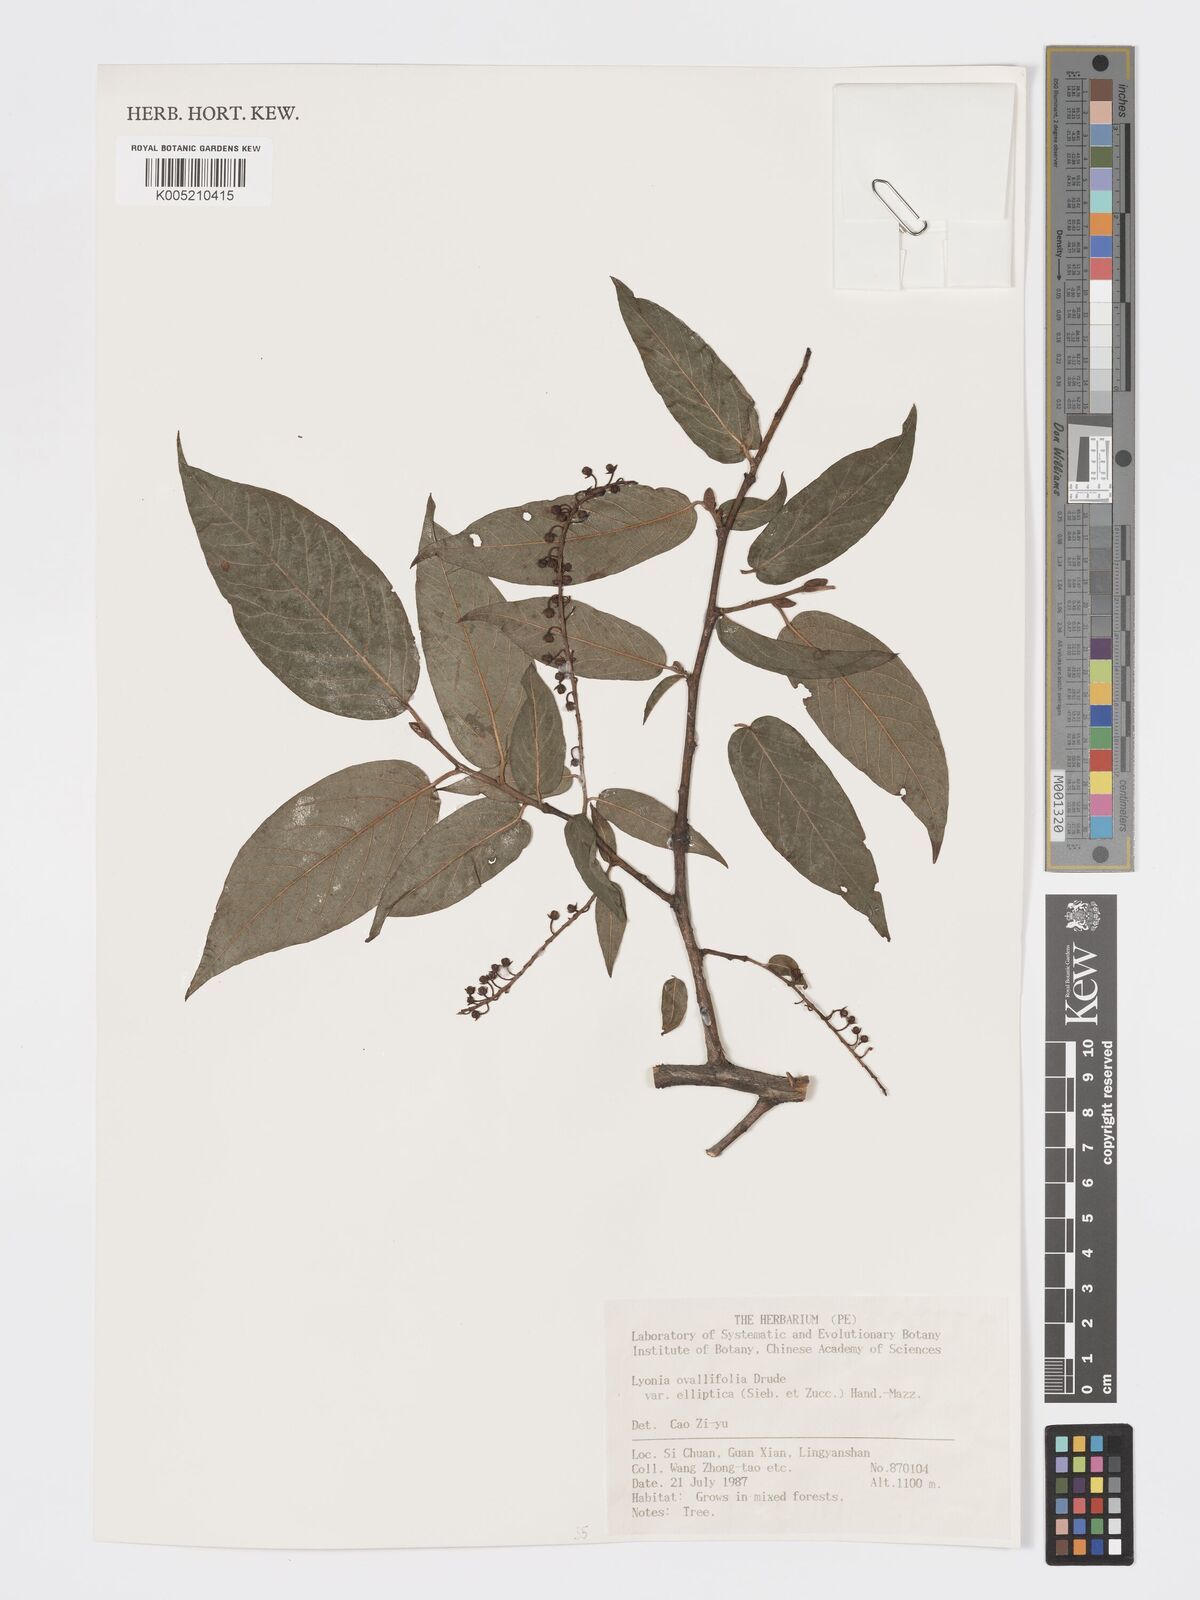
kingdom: Plantae
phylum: Tracheophyta
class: Magnoliopsida
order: Ericales
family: Ericaceae
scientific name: Ericaceae
